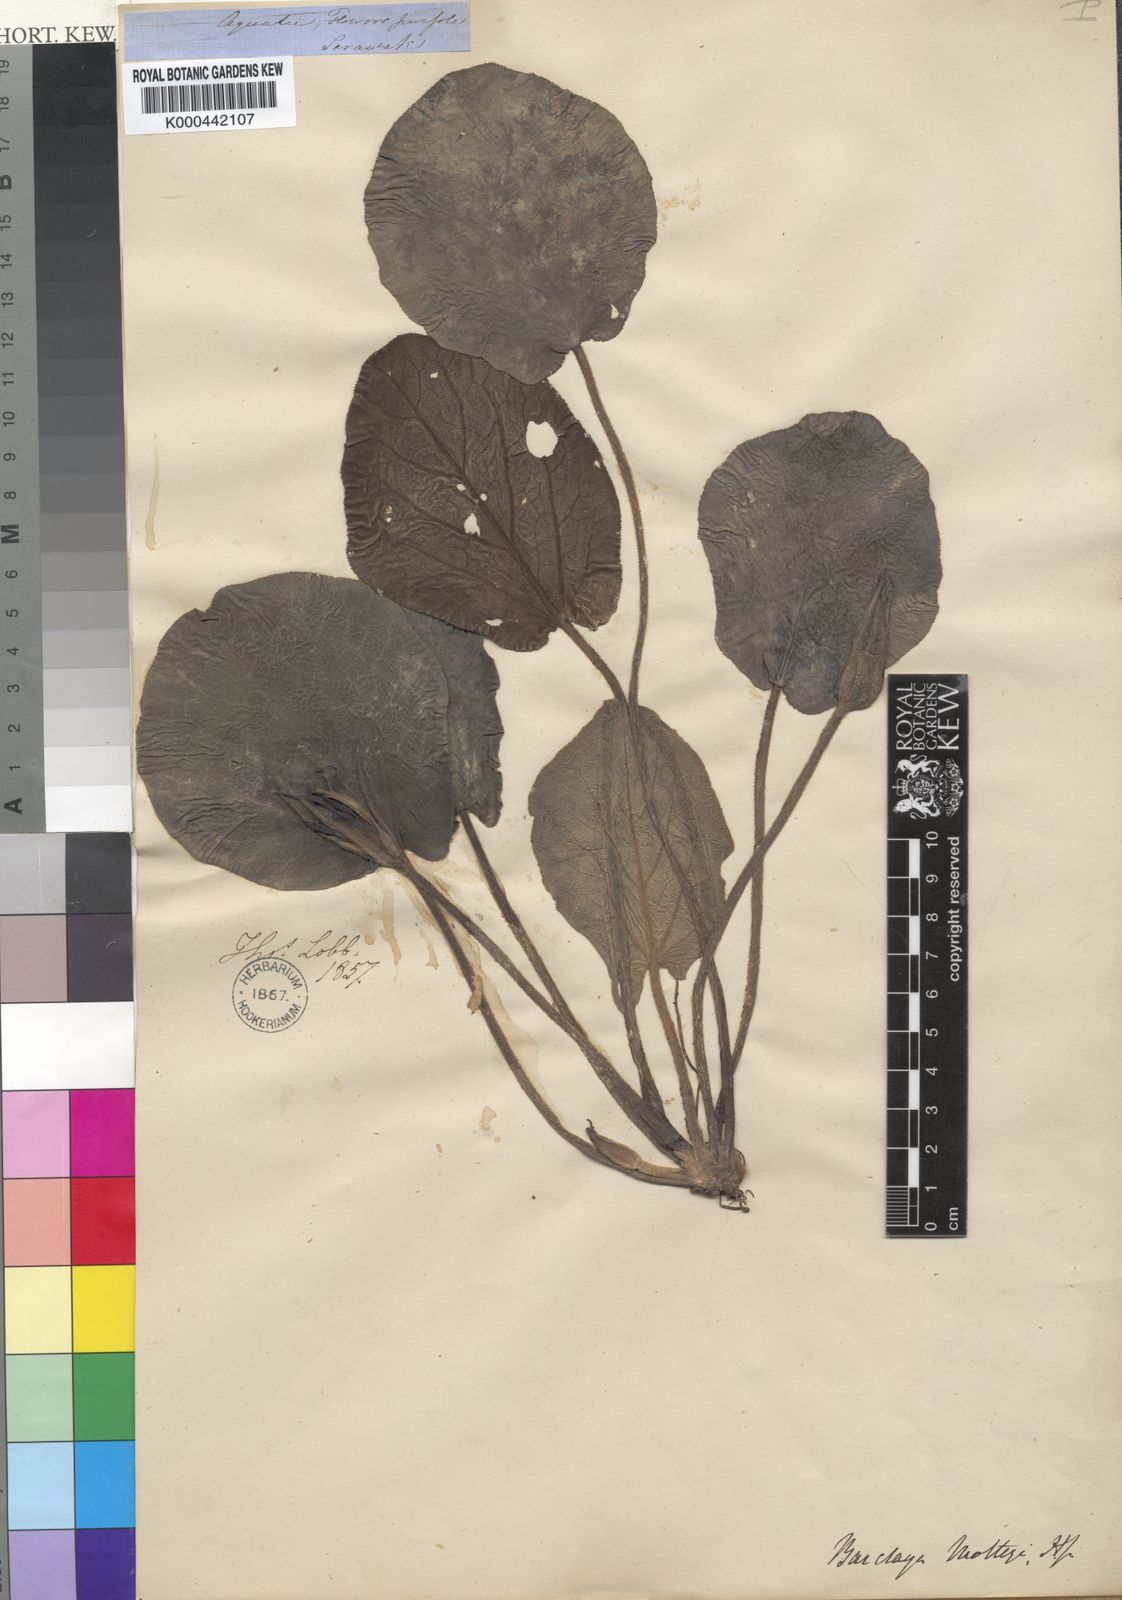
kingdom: Plantae
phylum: Tracheophyta
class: Magnoliopsida
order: Nymphaeales
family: Nymphaeaceae
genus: Barclaya
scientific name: Barclaya motleyi
